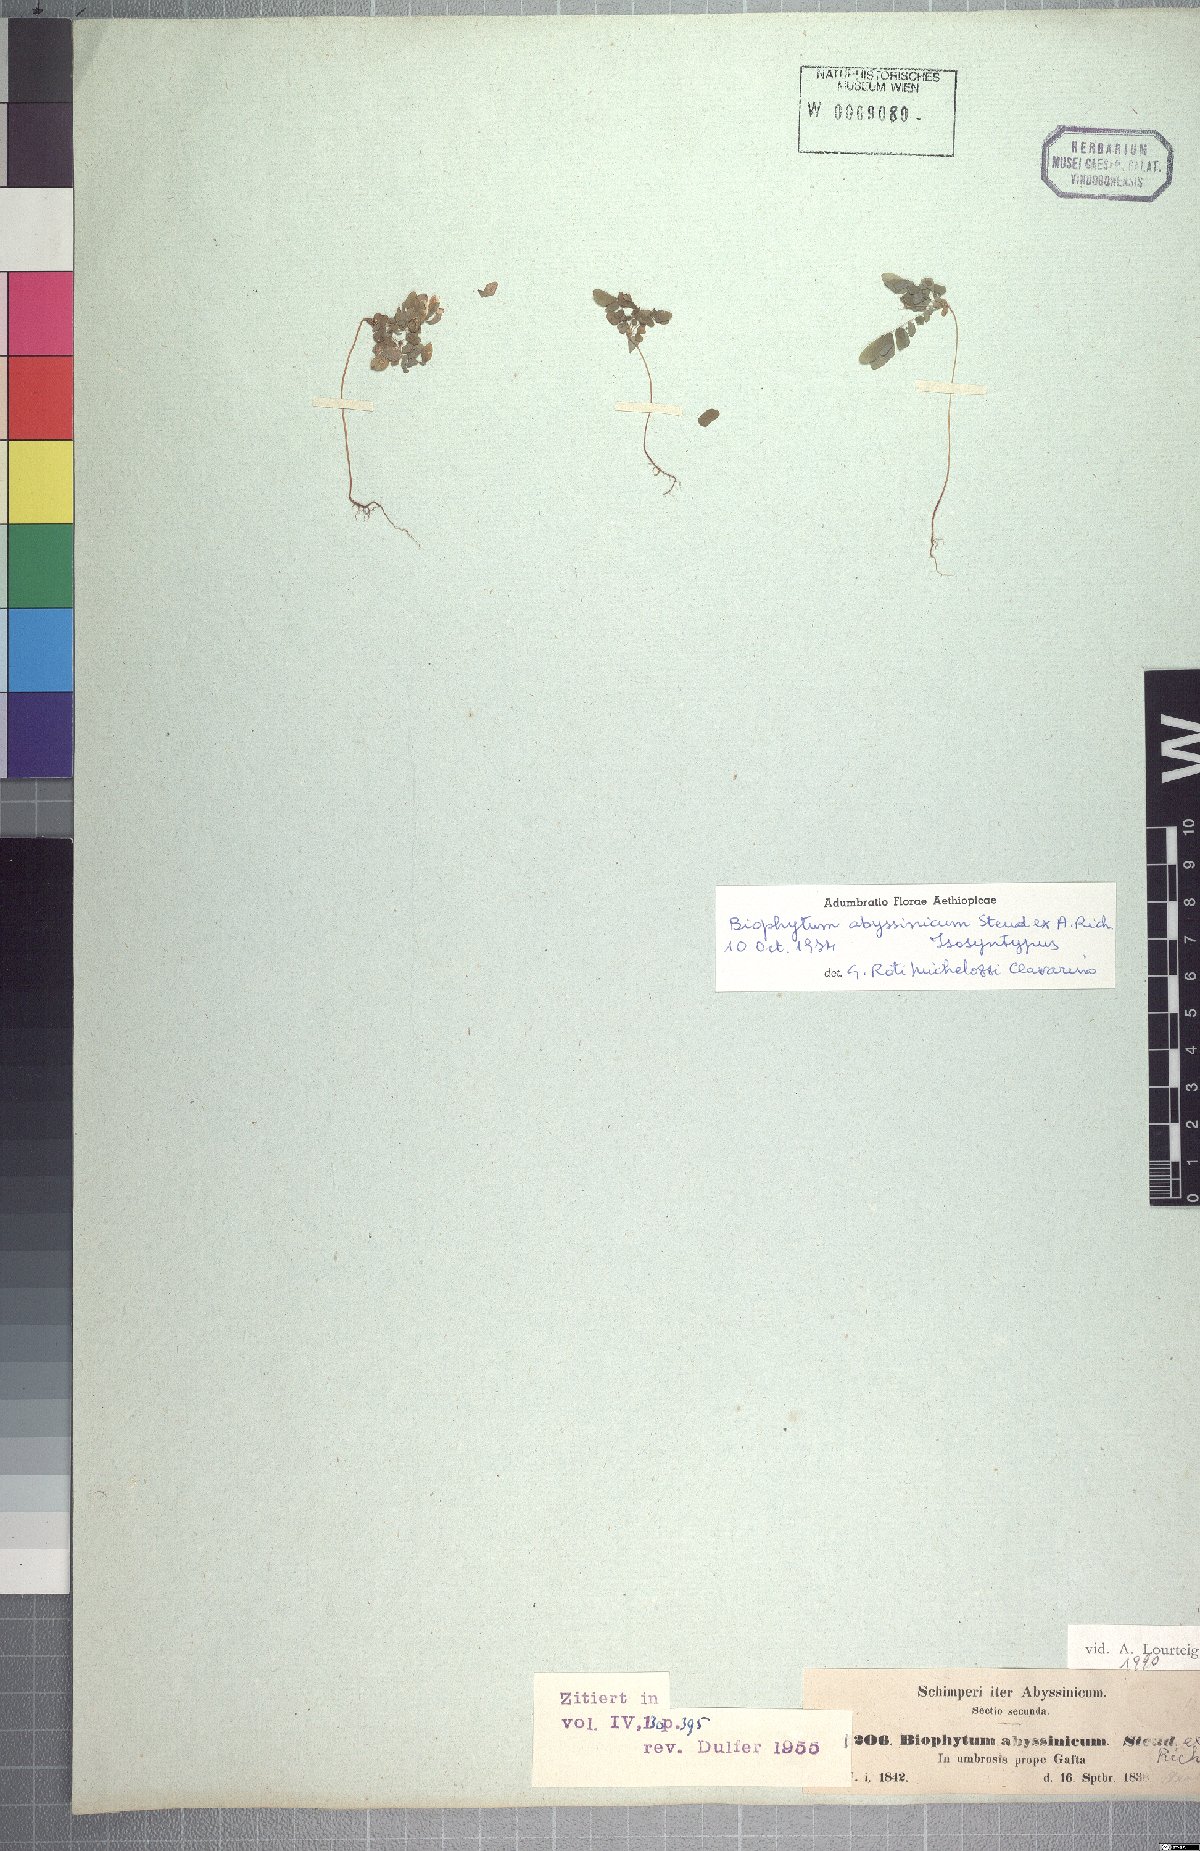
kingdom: Plantae
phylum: Tracheophyta
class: Magnoliopsida
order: Oxalidales
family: Oxalidaceae
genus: Biophytum
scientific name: Biophytum abyssinicum
